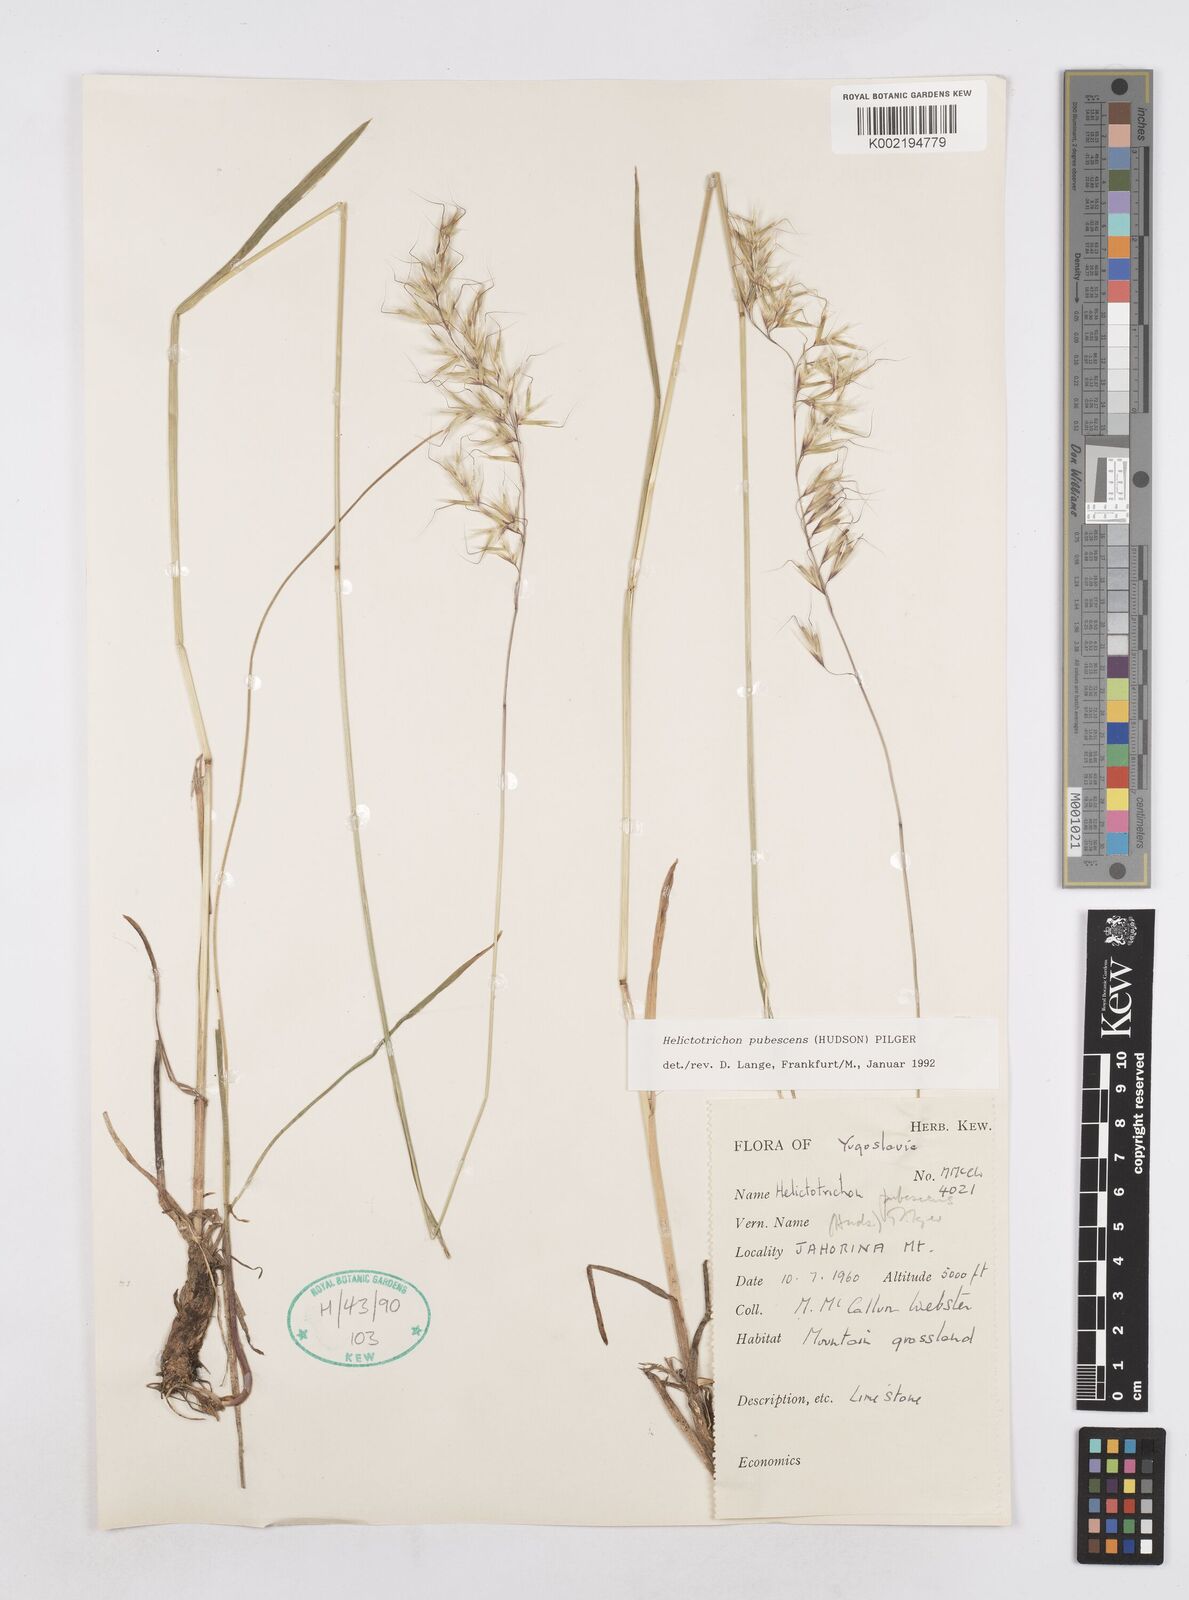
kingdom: Plantae
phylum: Tracheophyta
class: Liliopsida
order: Poales
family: Poaceae
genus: Avenula
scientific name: Avenula pubescens
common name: Downy alpine oatgrass
